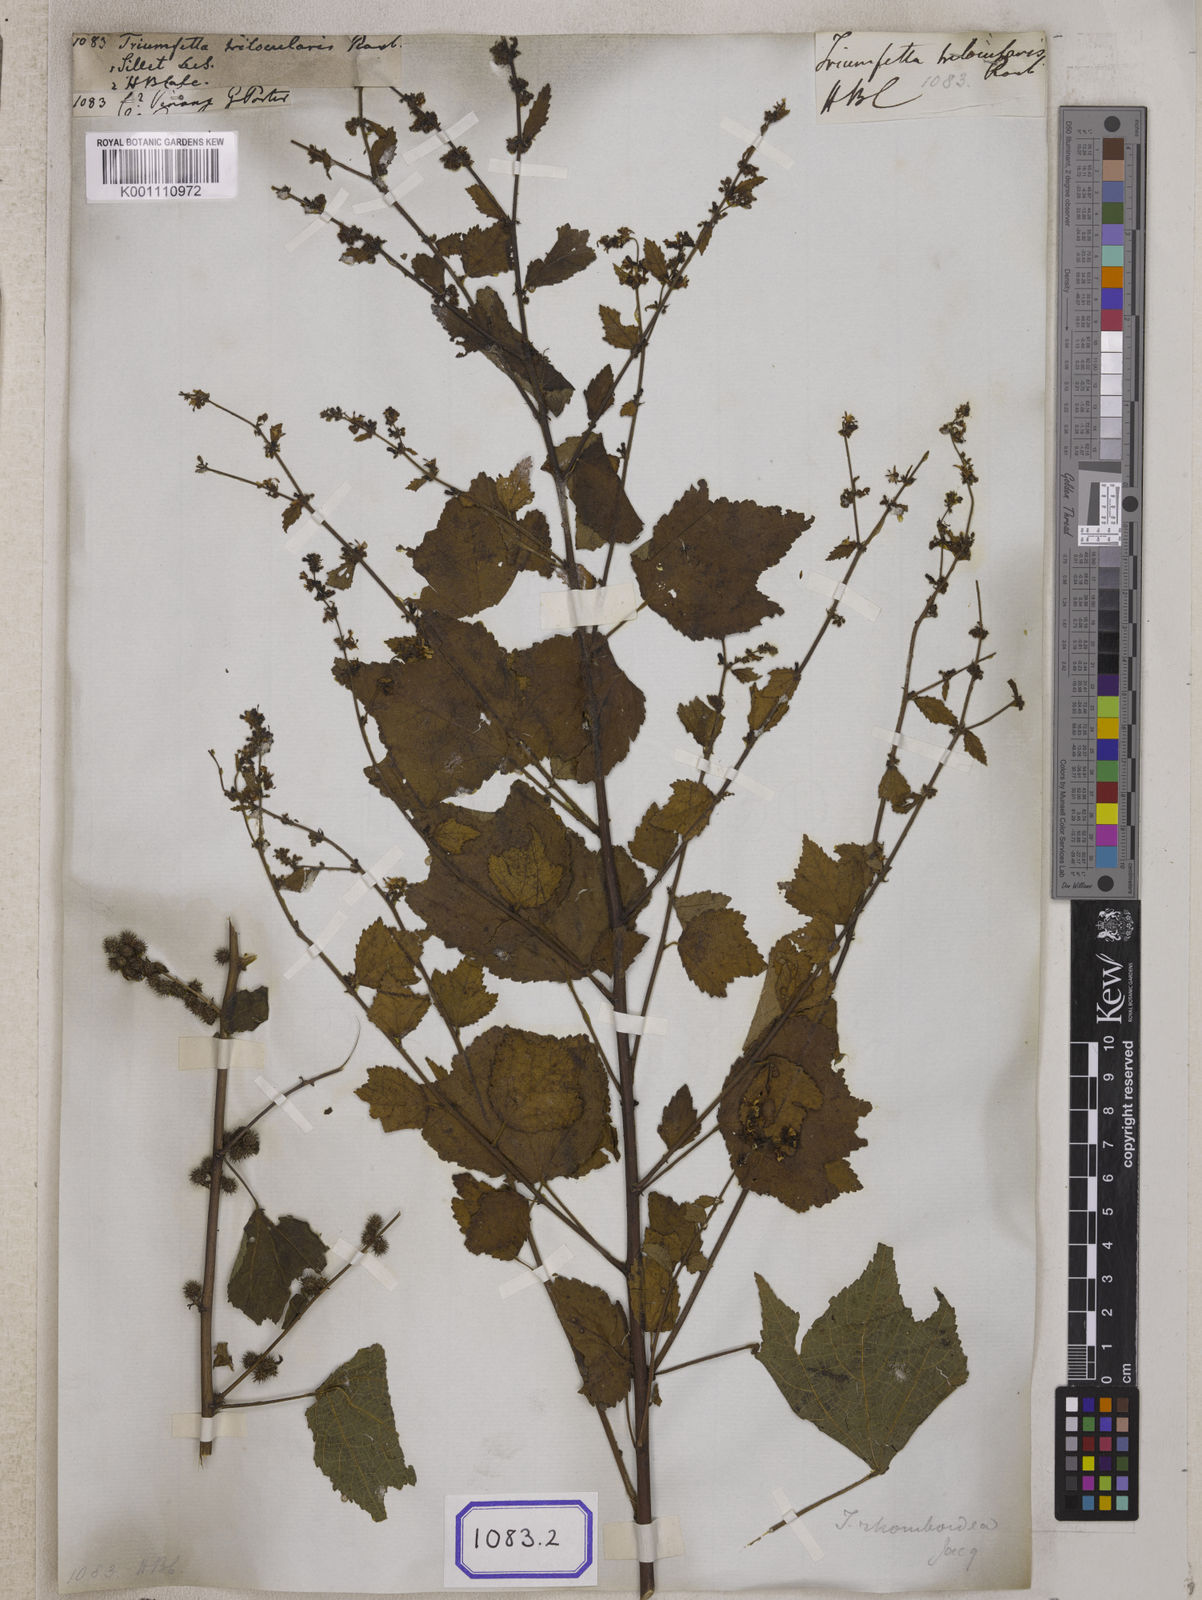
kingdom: Plantae
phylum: Tracheophyta
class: Magnoliopsida
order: Malvales
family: Malvaceae
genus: Triumfetta
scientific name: Triumfetta
